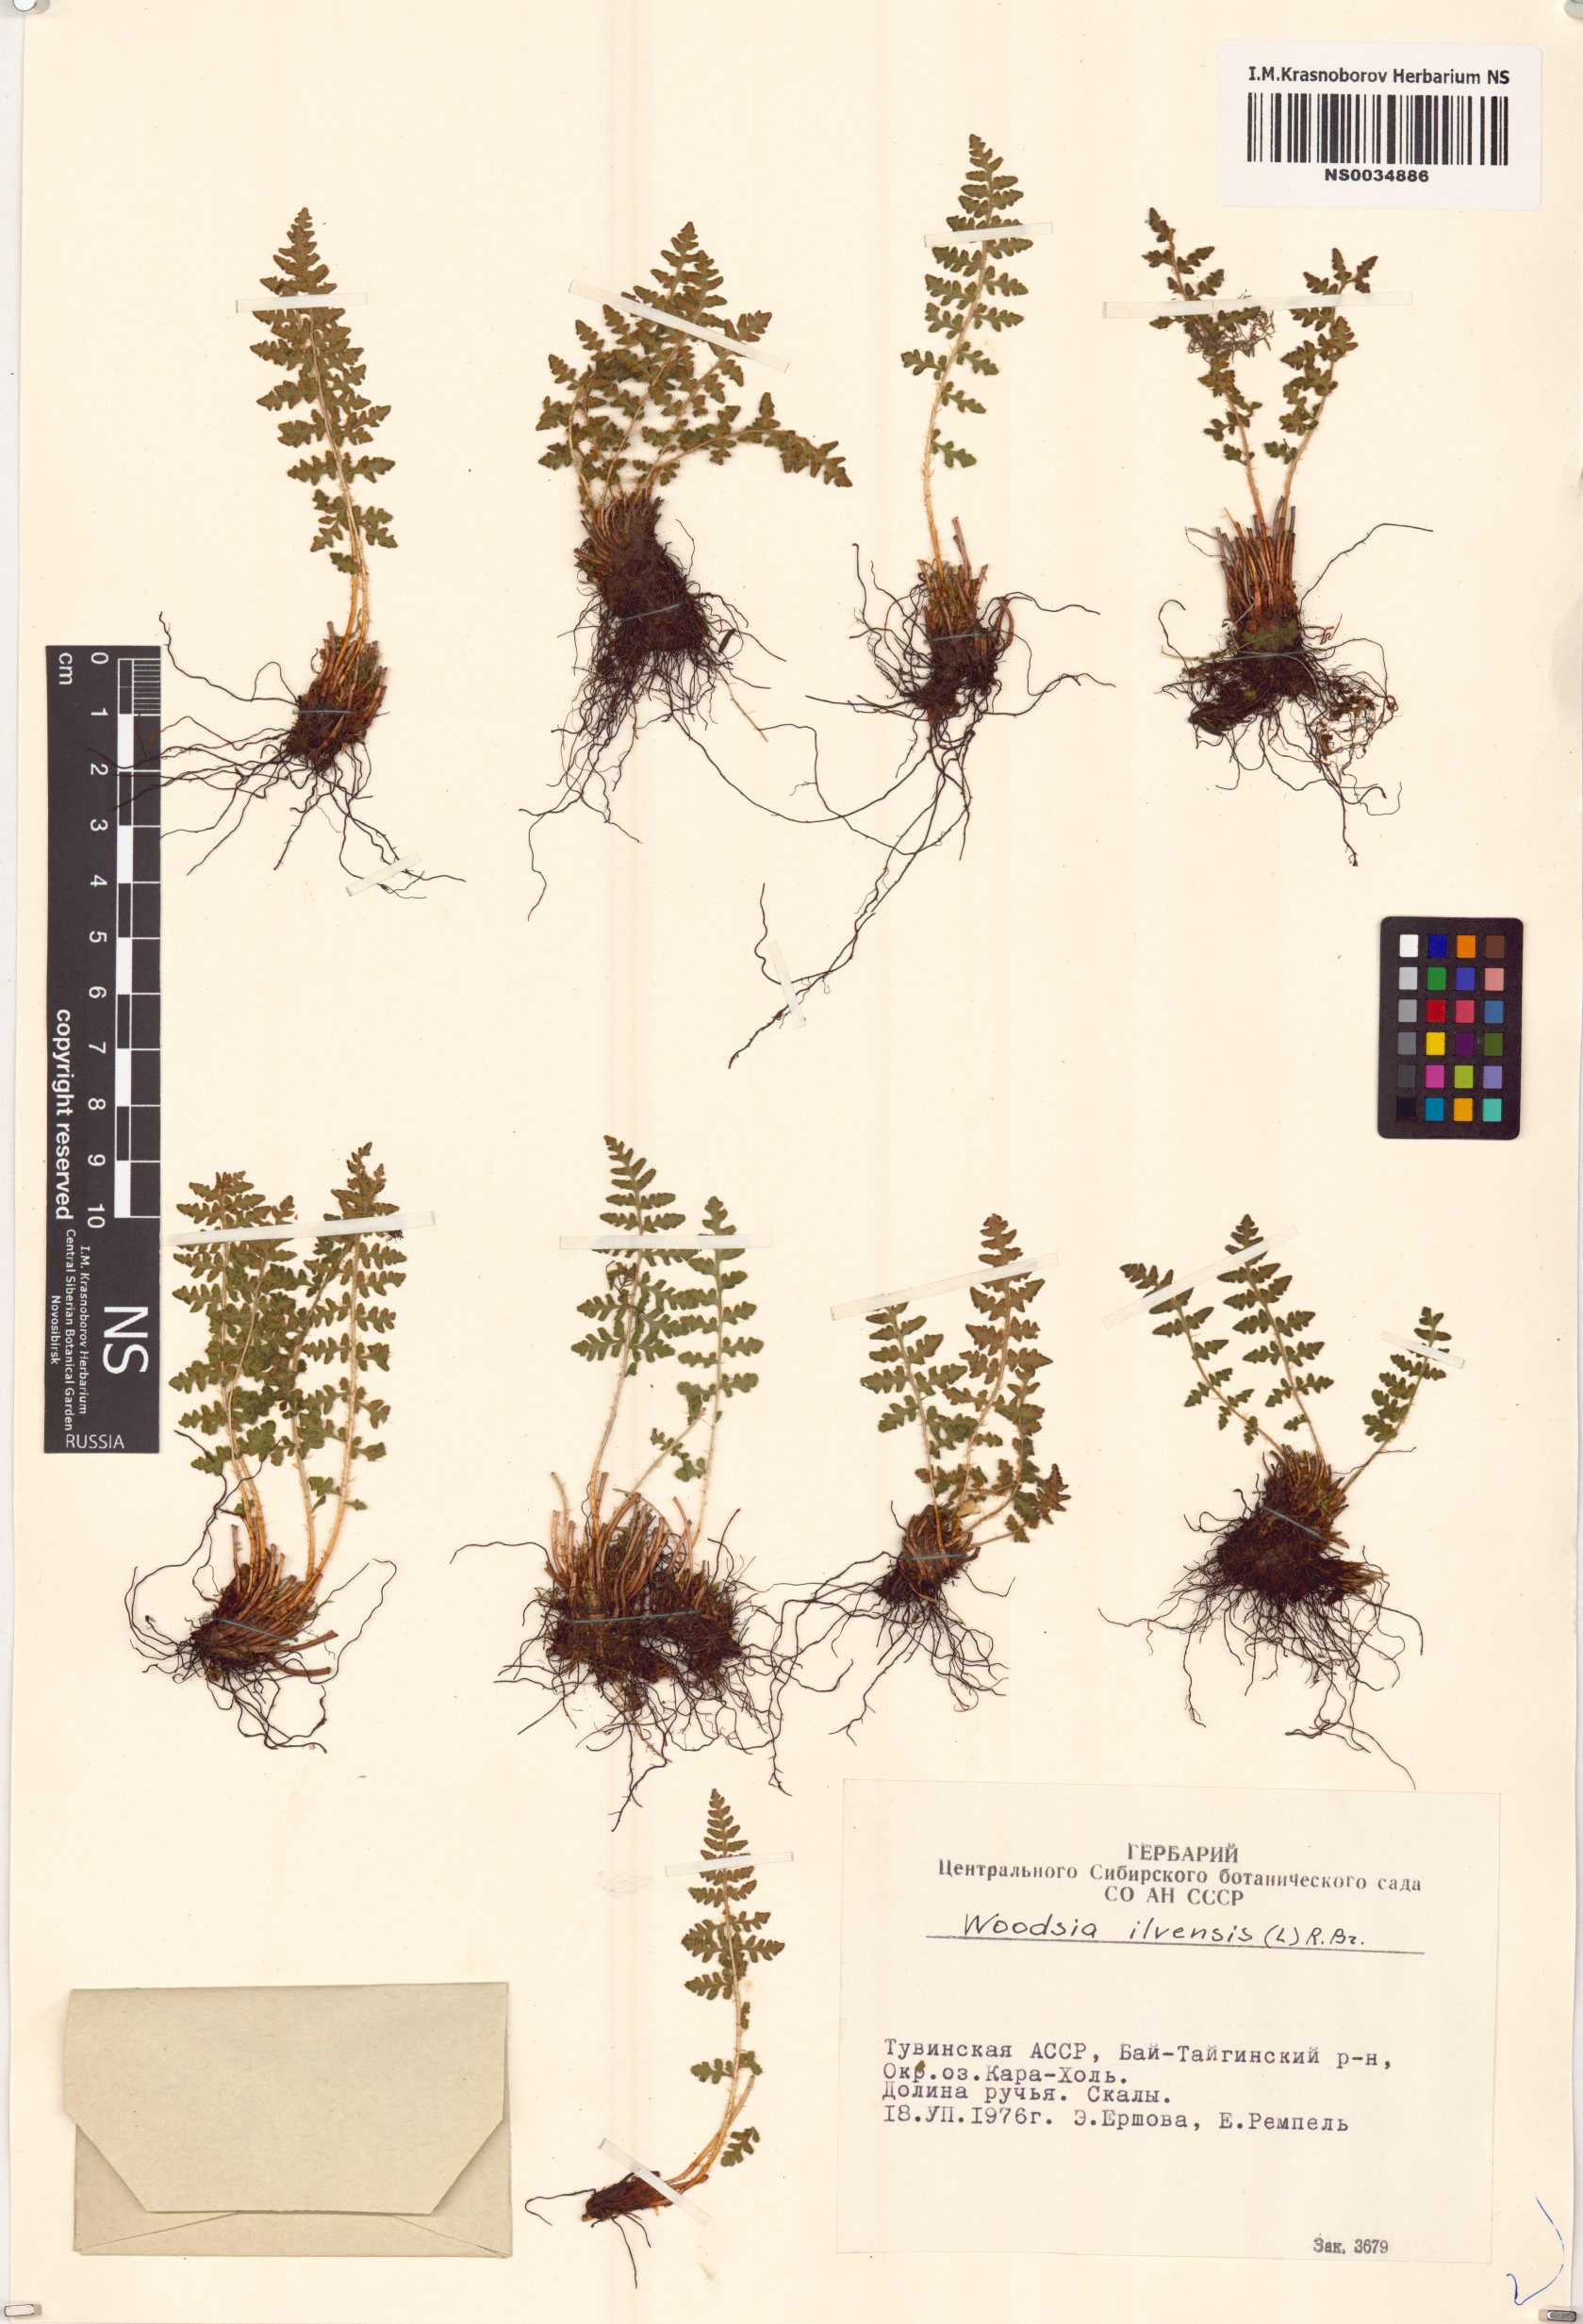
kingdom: Plantae
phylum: Tracheophyta
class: Polypodiopsida
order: Polypodiales
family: Woodsiaceae
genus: Woodsia
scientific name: Woodsia ilvensis
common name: Fragrant woodsia
